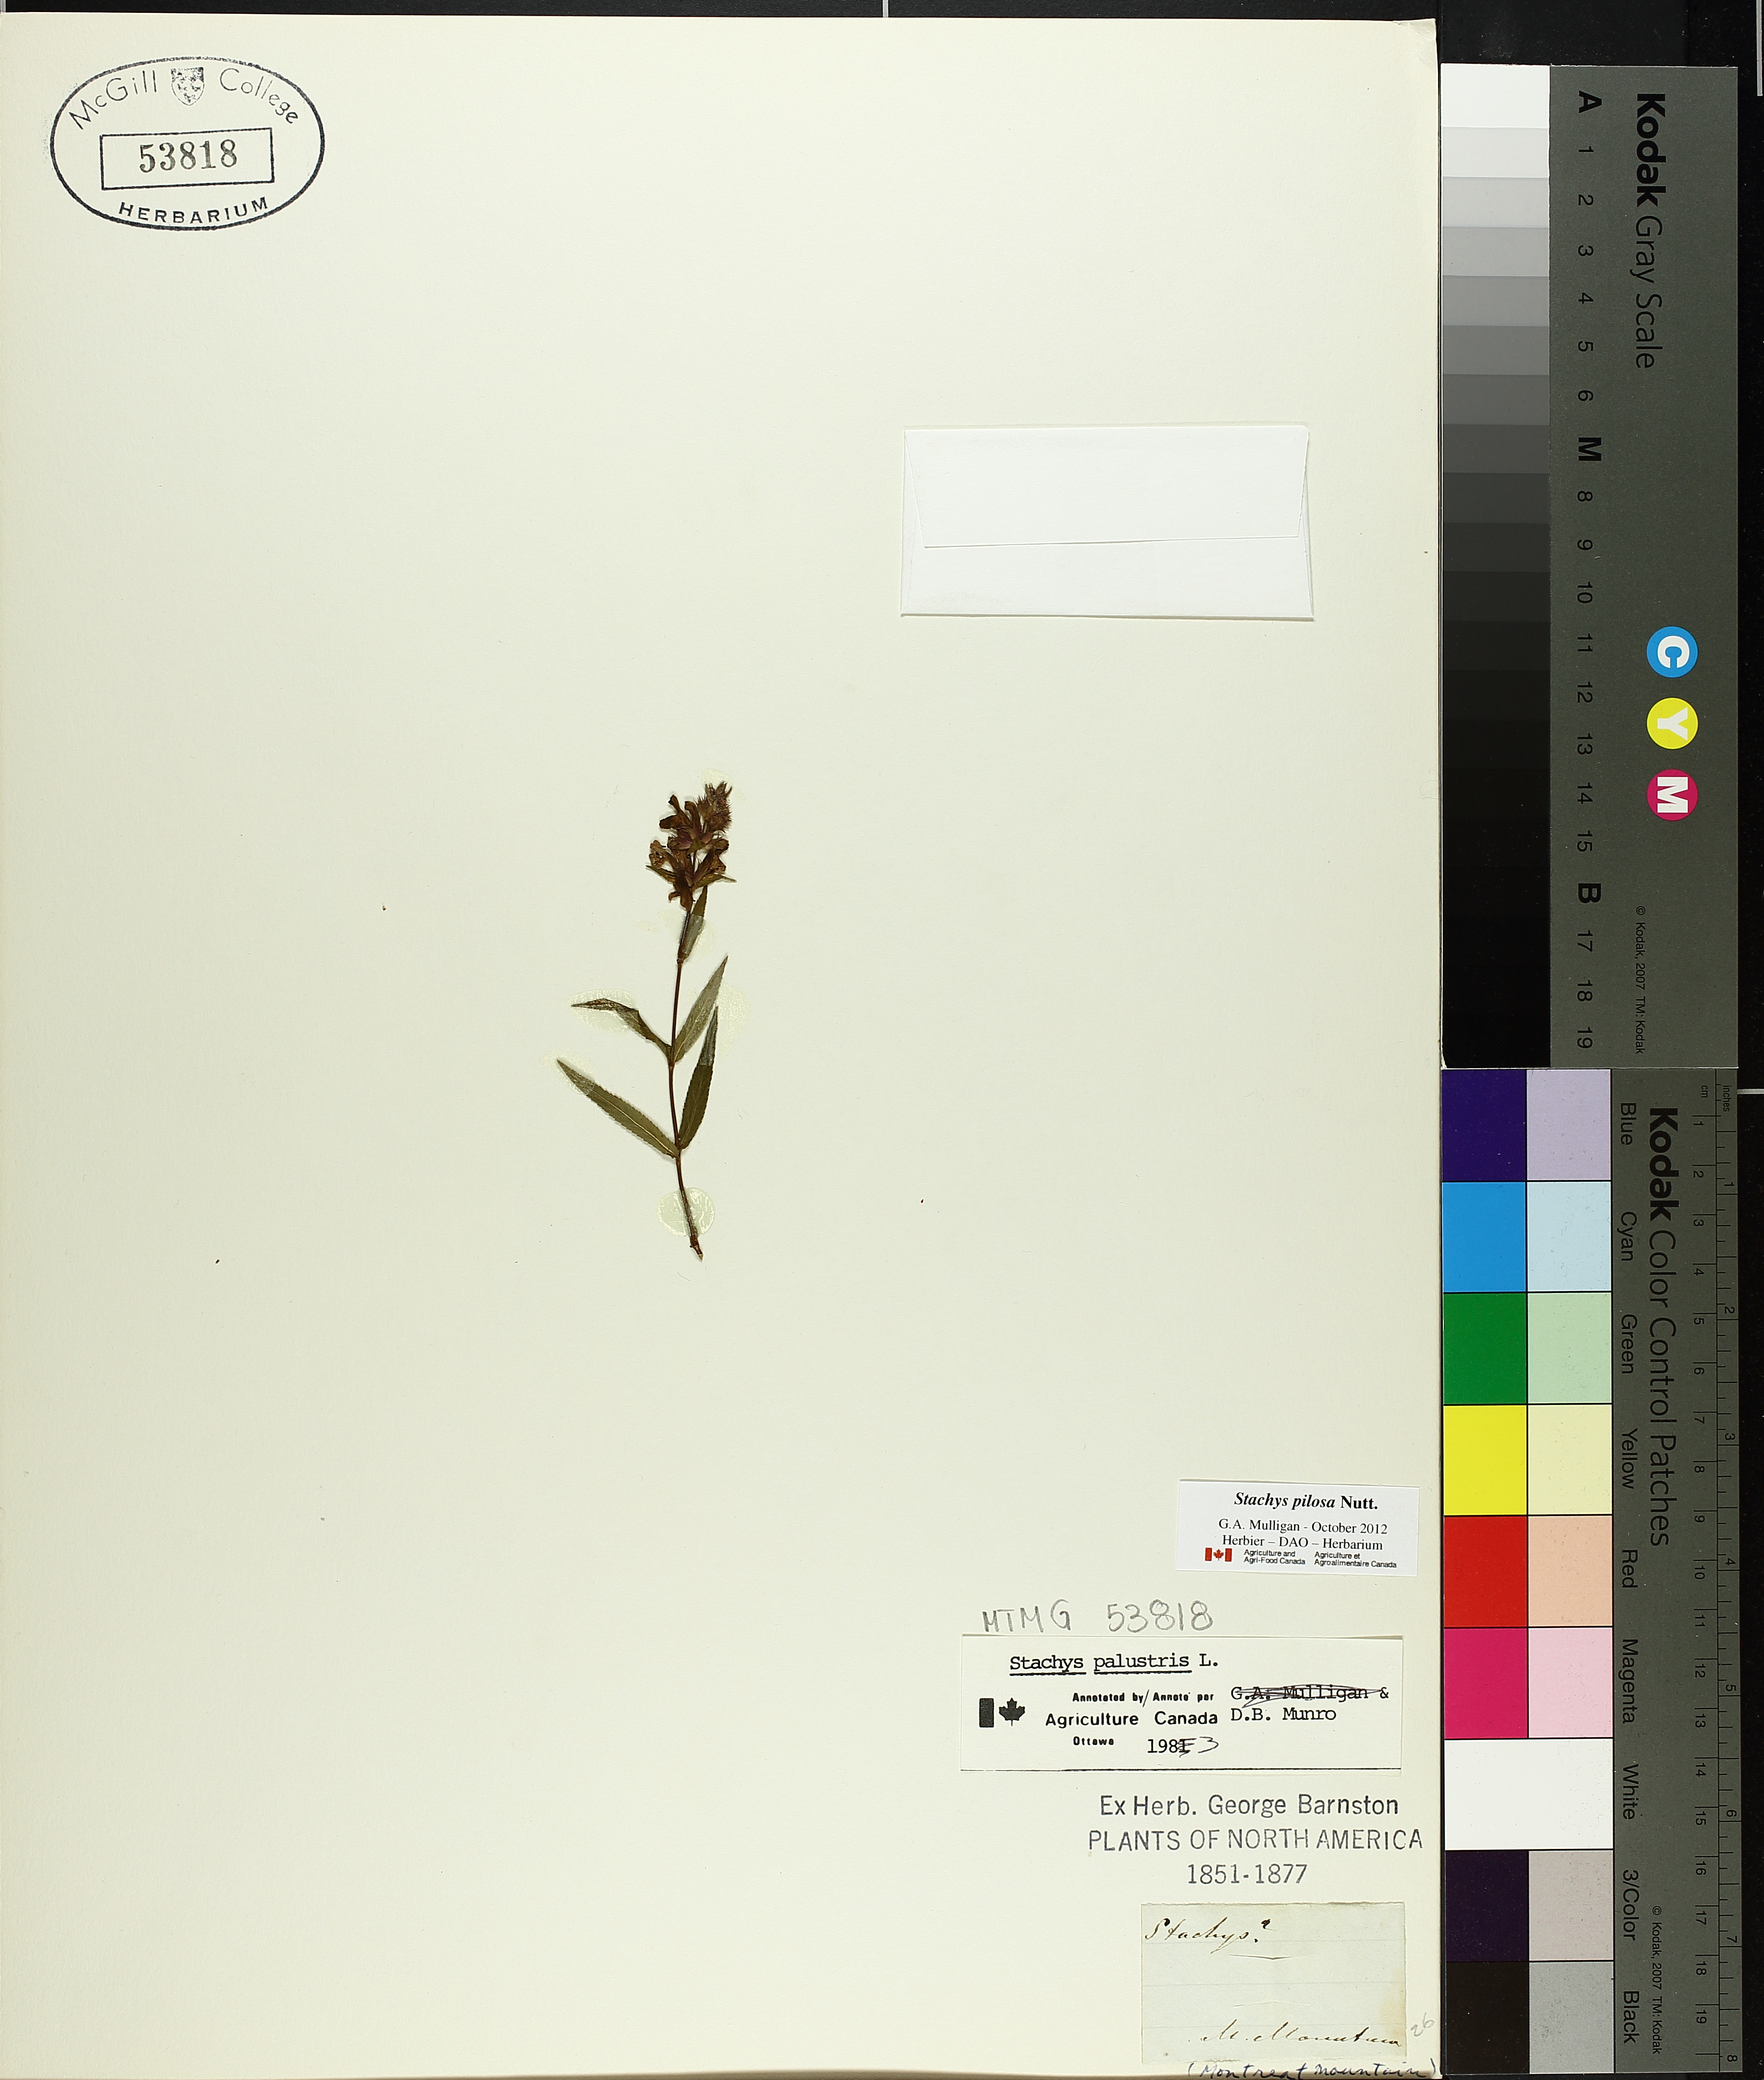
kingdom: Plantae
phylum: Tracheophyta
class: Magnoliopsida
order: Lamiales
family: Lamiaceae
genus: Stachys
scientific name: Stachys palustris
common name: Marsh woundwort
